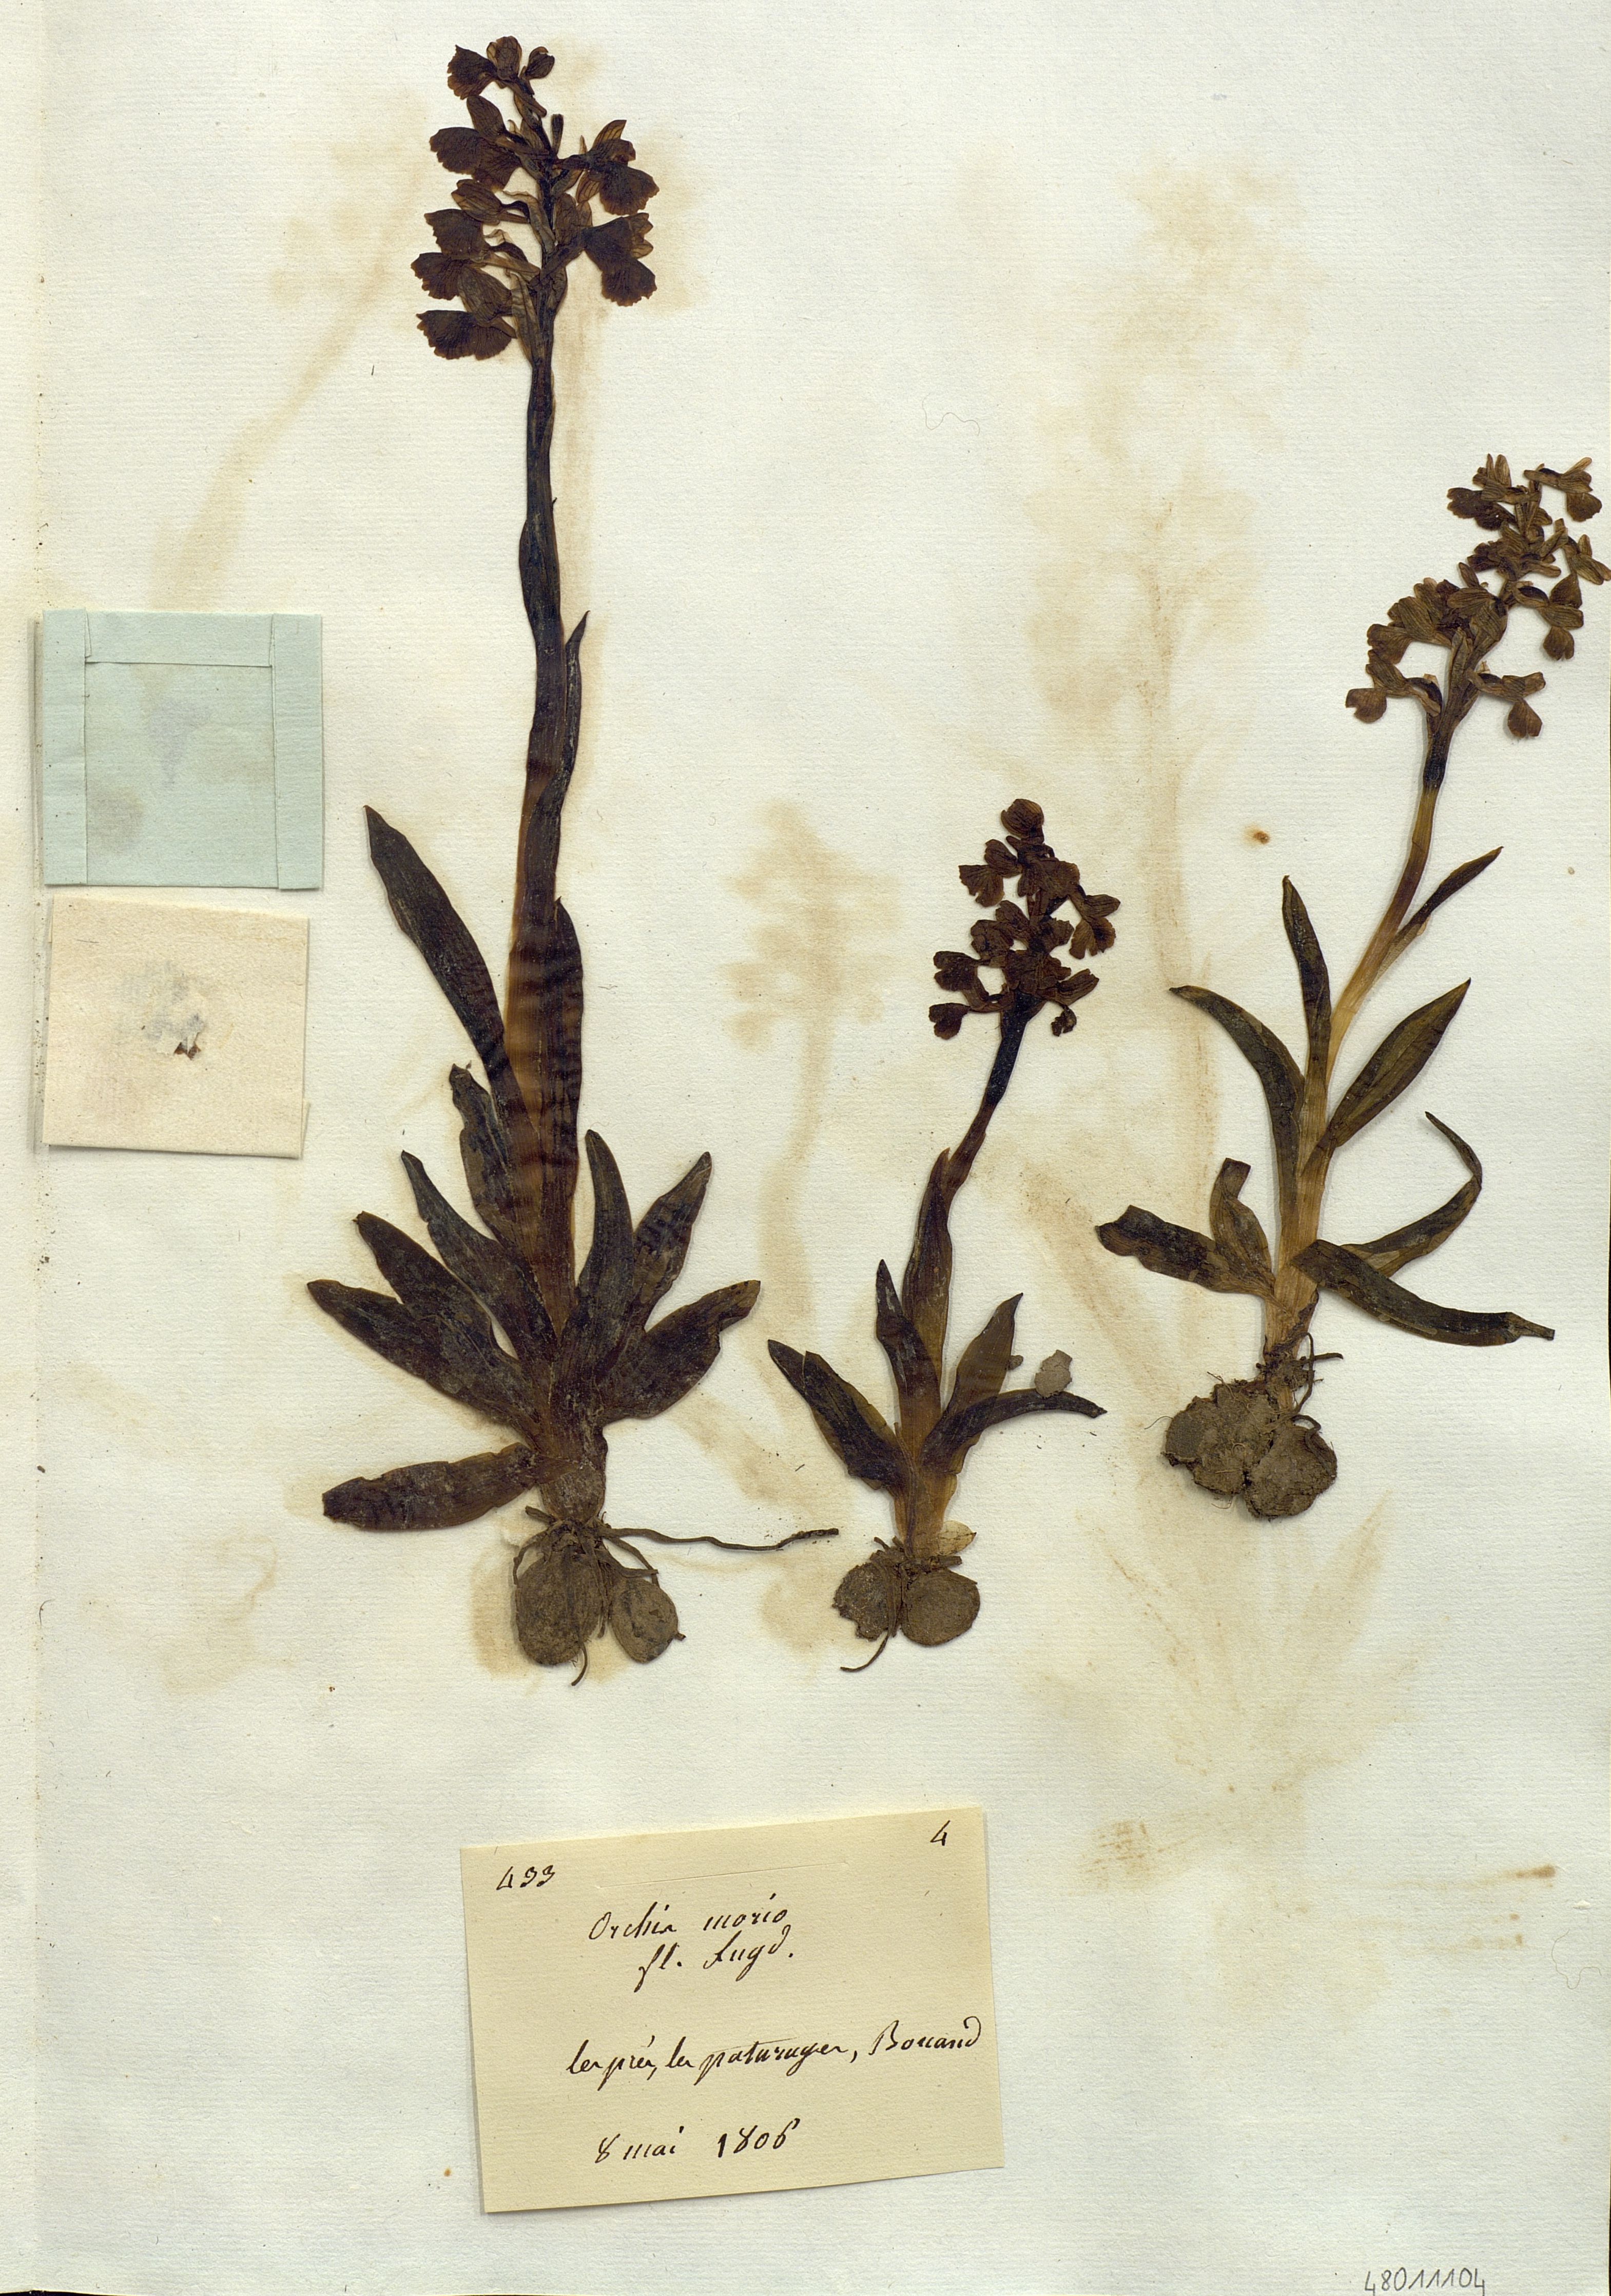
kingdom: Plantae
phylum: Tracheophyta
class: Liliopsida
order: Asparagales
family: Orchidaceae
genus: Orchis
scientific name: Orchis morio
